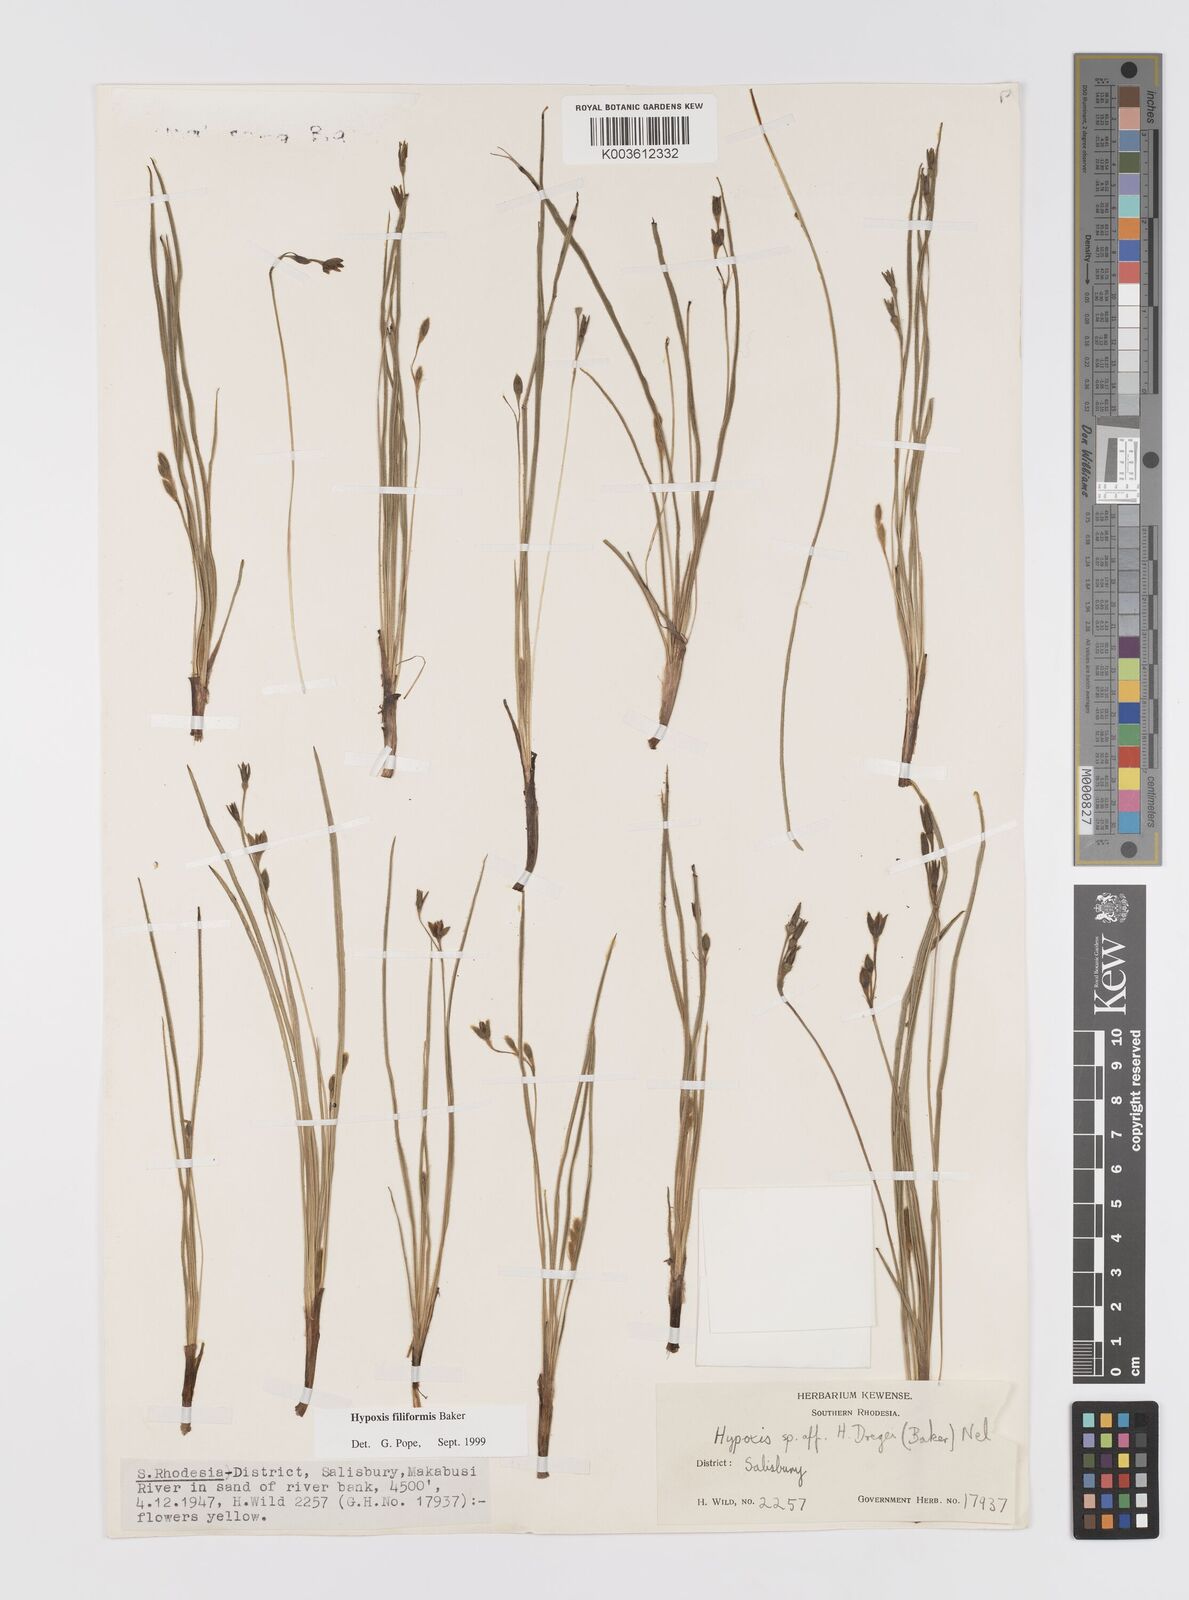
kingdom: Plantae
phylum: Tracheophyta
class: Liliopsida
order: Asparagales
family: Hypoxidaceae
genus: Hypoxis
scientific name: Hypoxis filiformis
